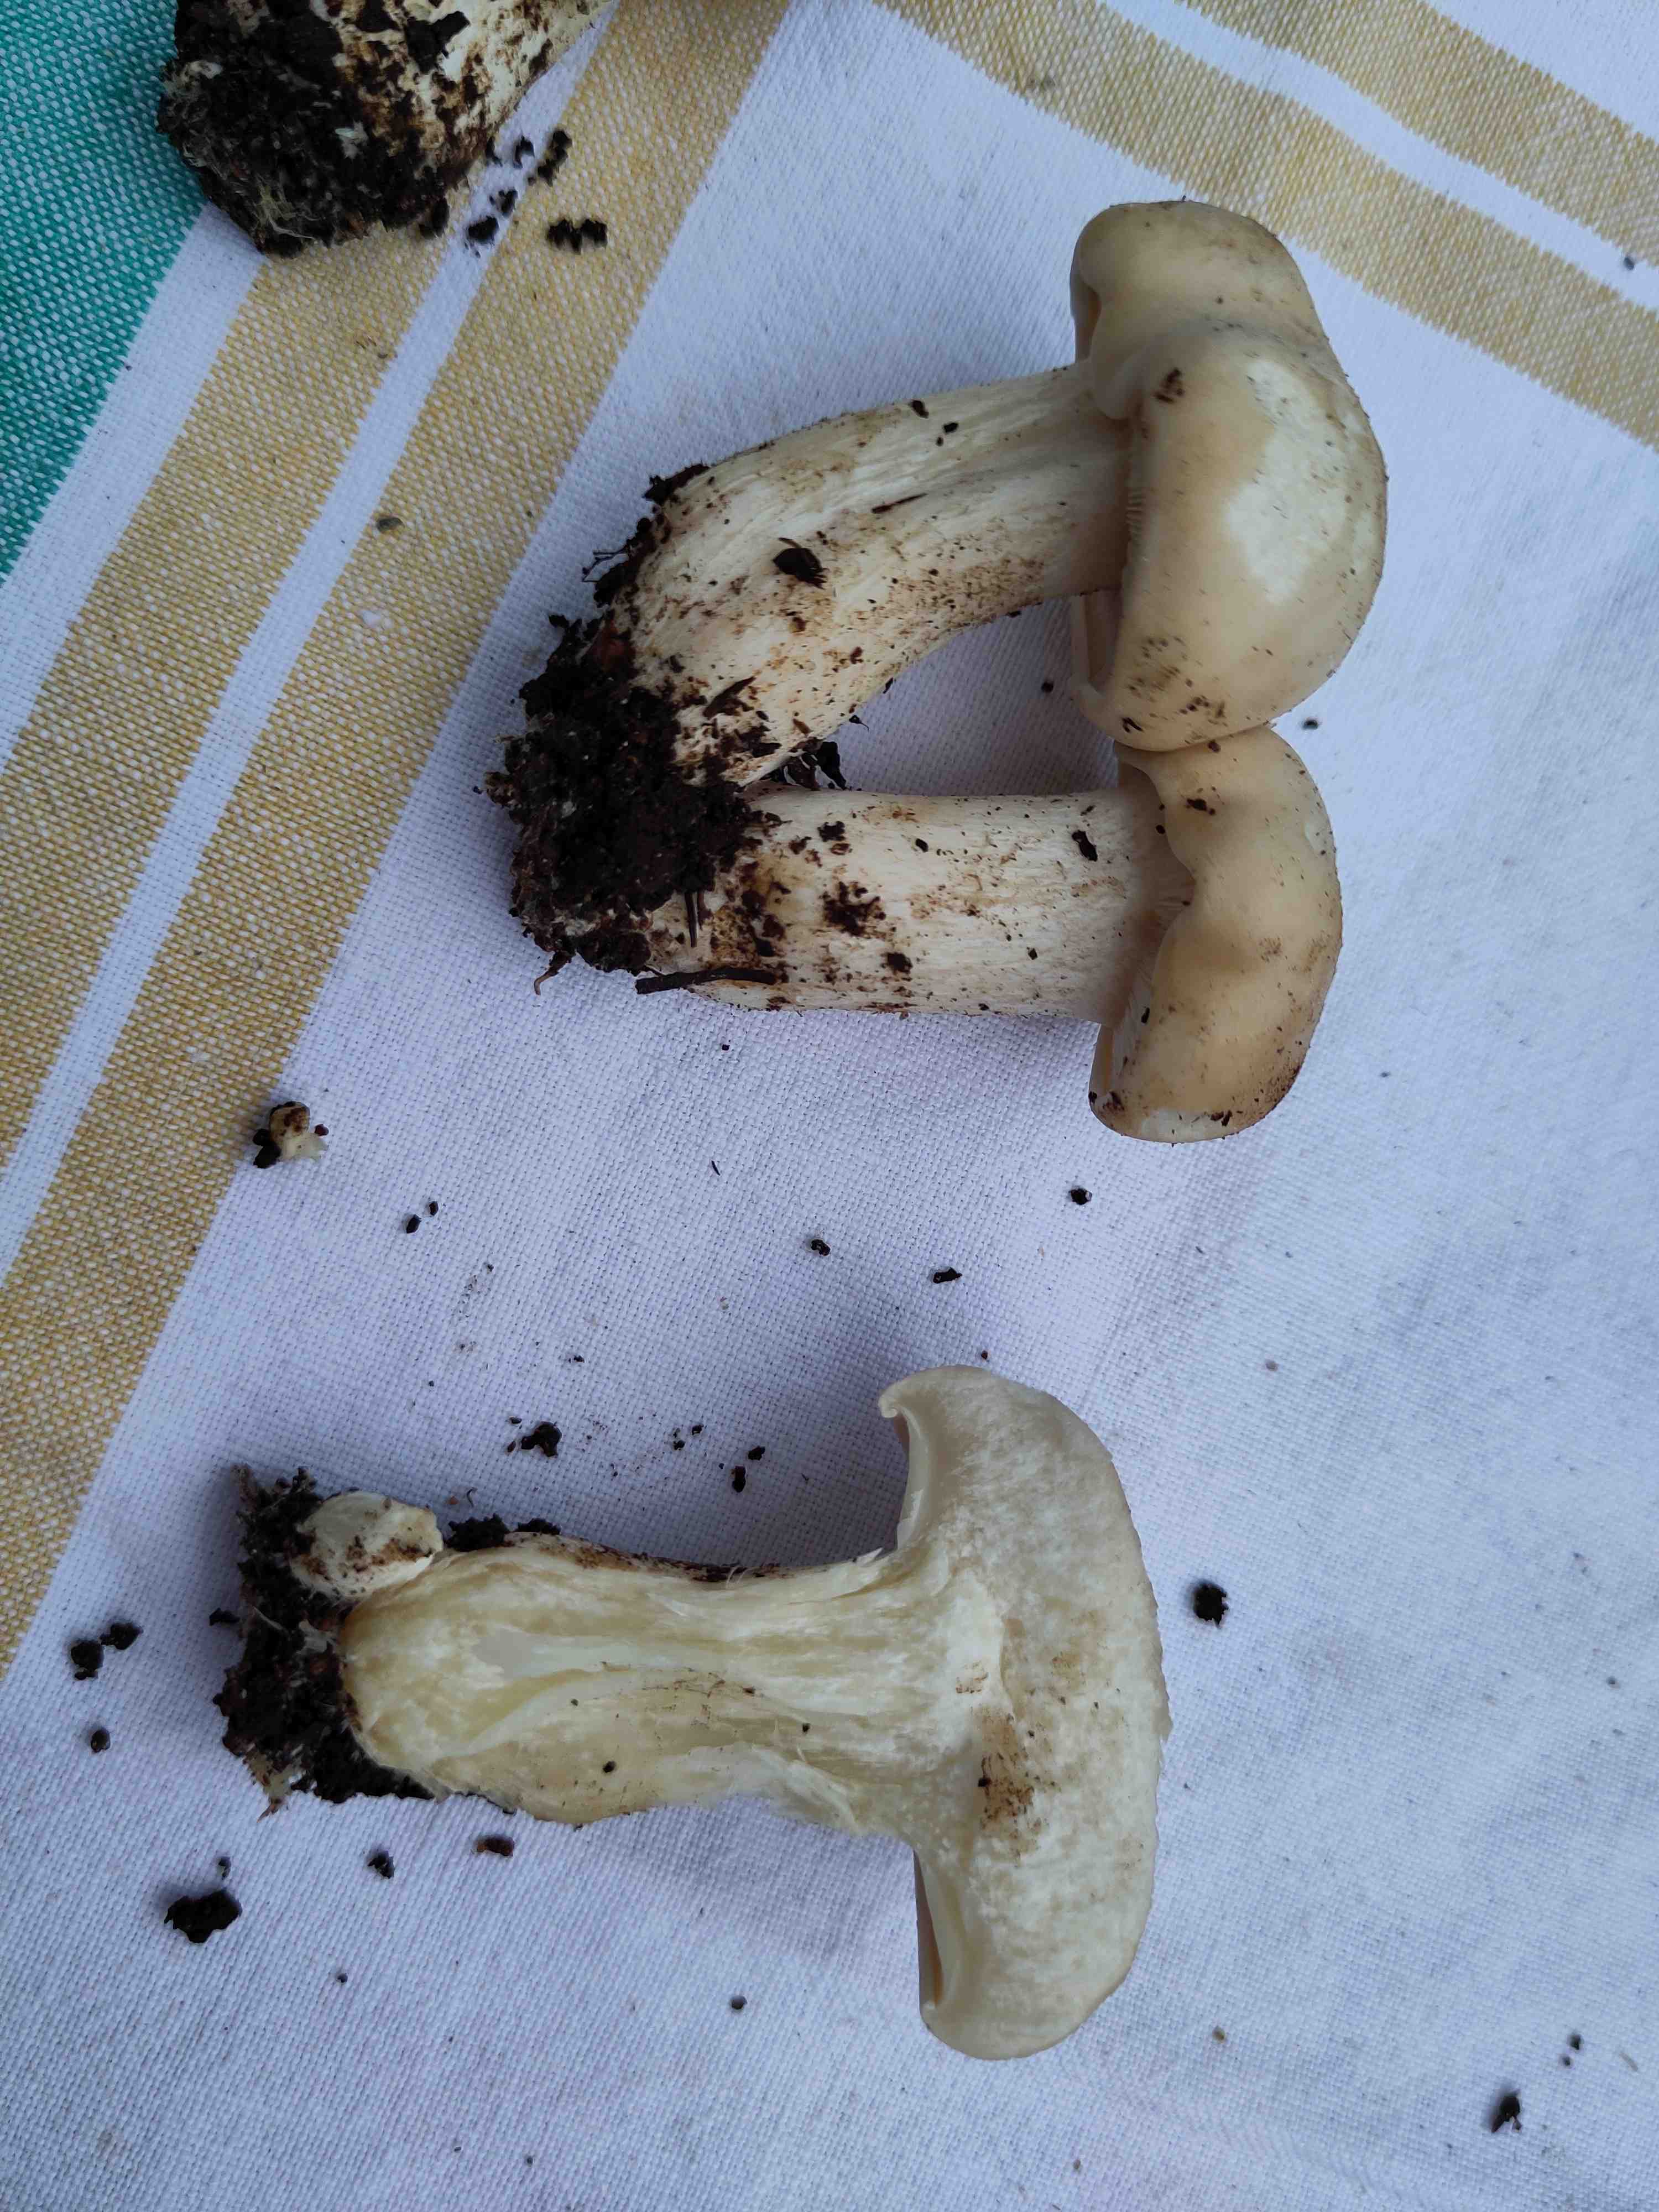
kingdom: Fungi
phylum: Basidiomycota
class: Agaricomycetes
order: Agaricales
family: Lyophyllaceae
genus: Calocybe
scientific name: Calocybe gambosa
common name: vårmusseron
